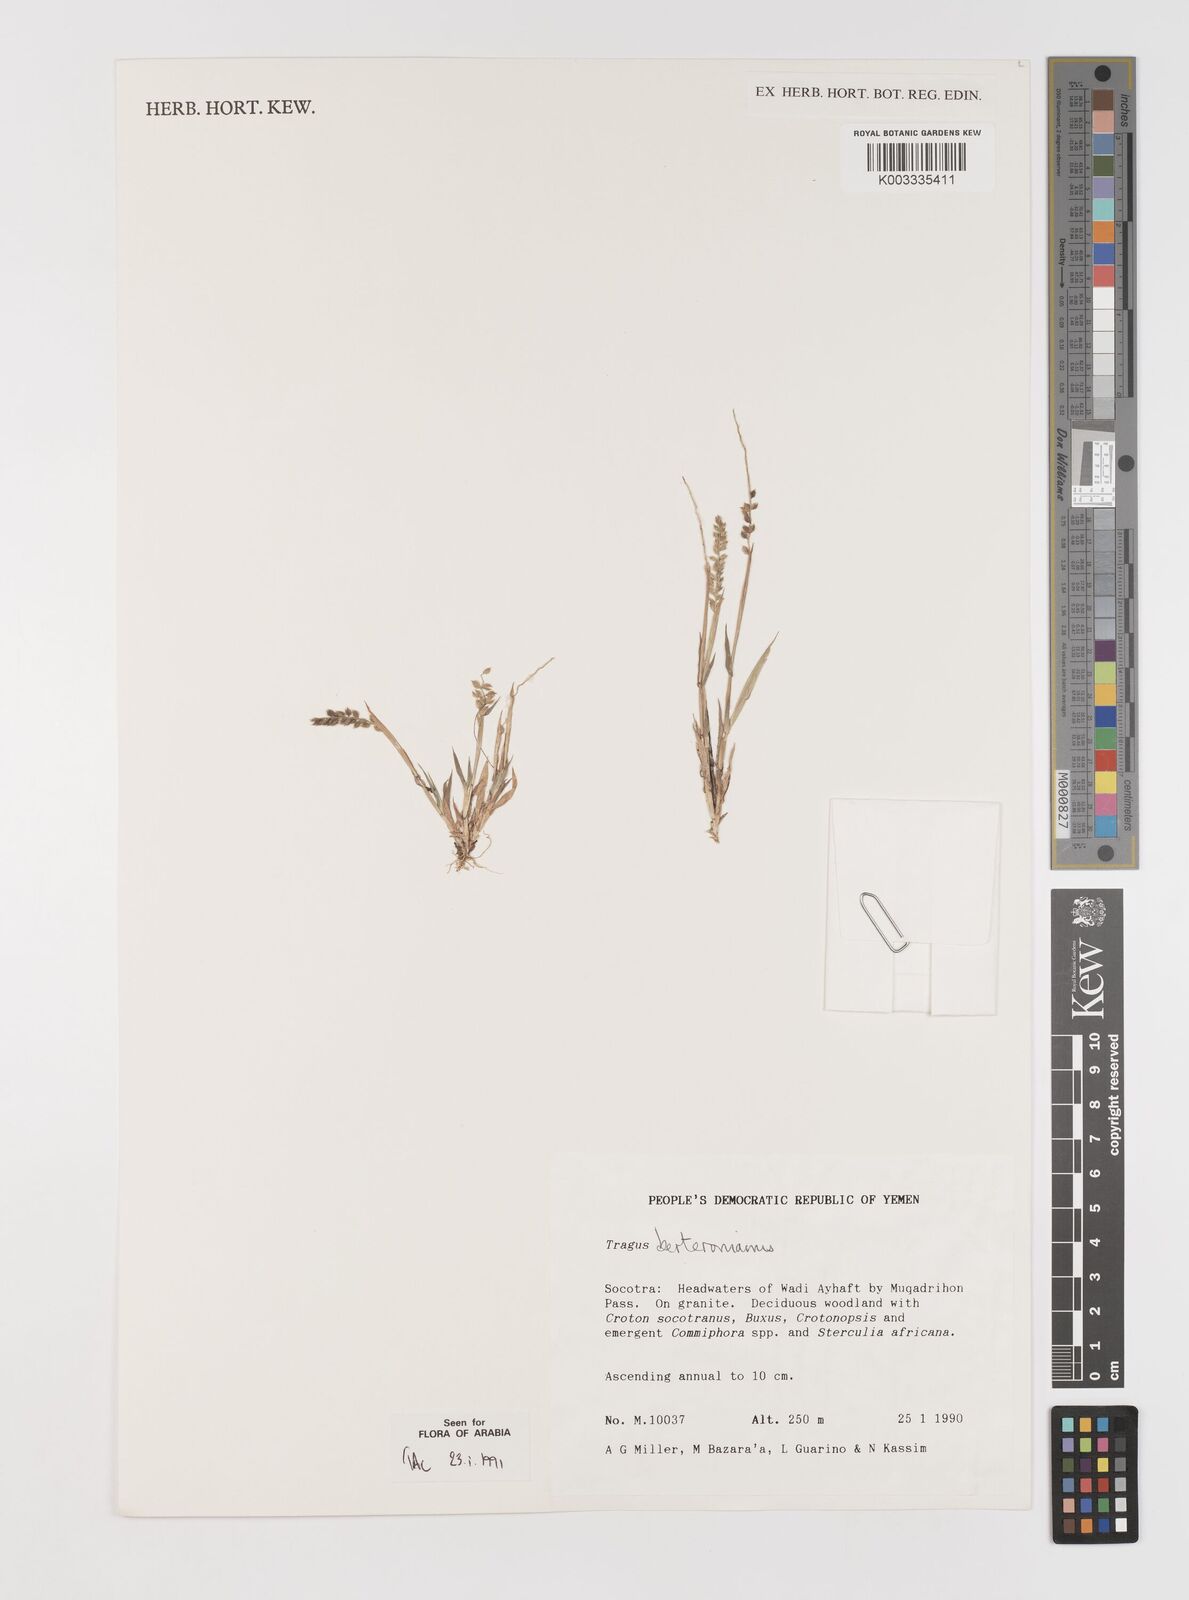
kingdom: Plantae
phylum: Tracheophyta
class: Liliopsida
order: Poales
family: Poaceae
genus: Tragus
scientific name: Tragus berteronianus
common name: African bur-grass
